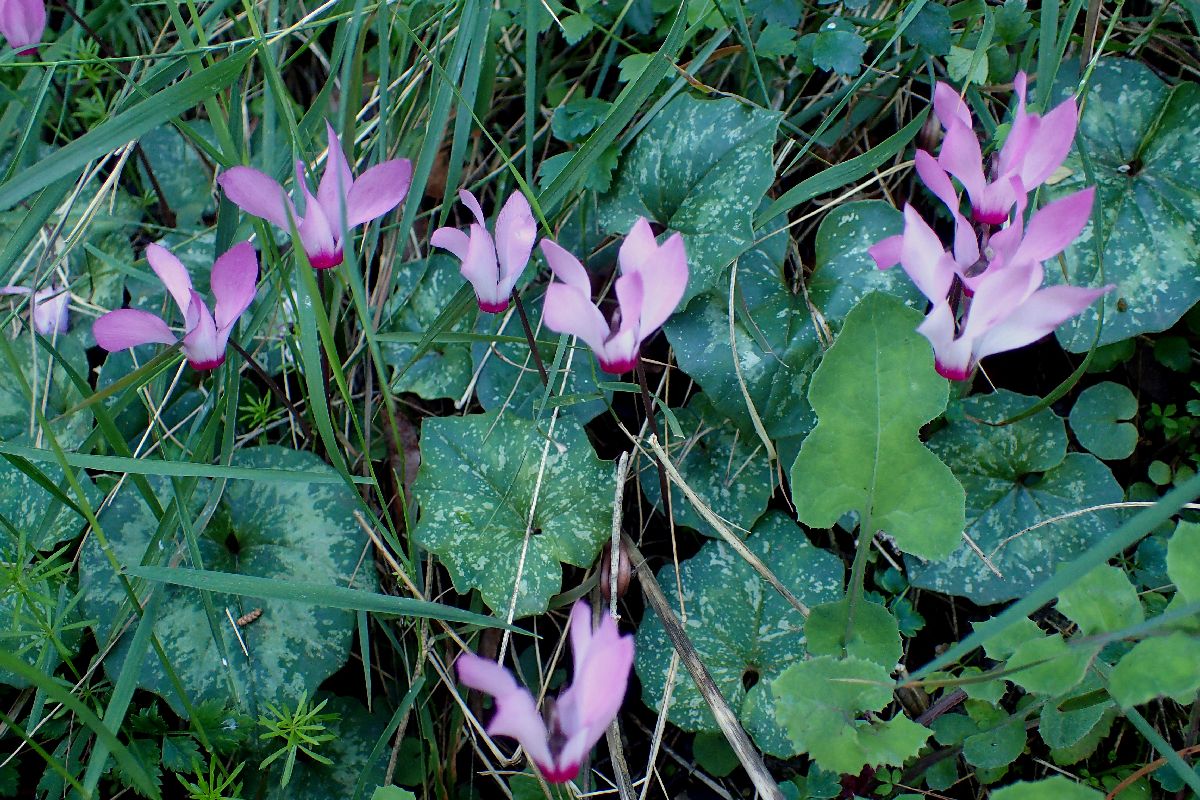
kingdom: Plantae
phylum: Tracheophyta
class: Magnoliopsida
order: Ericales
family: Primulaceae
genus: Cyclamen
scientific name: Cyclamen repandum
